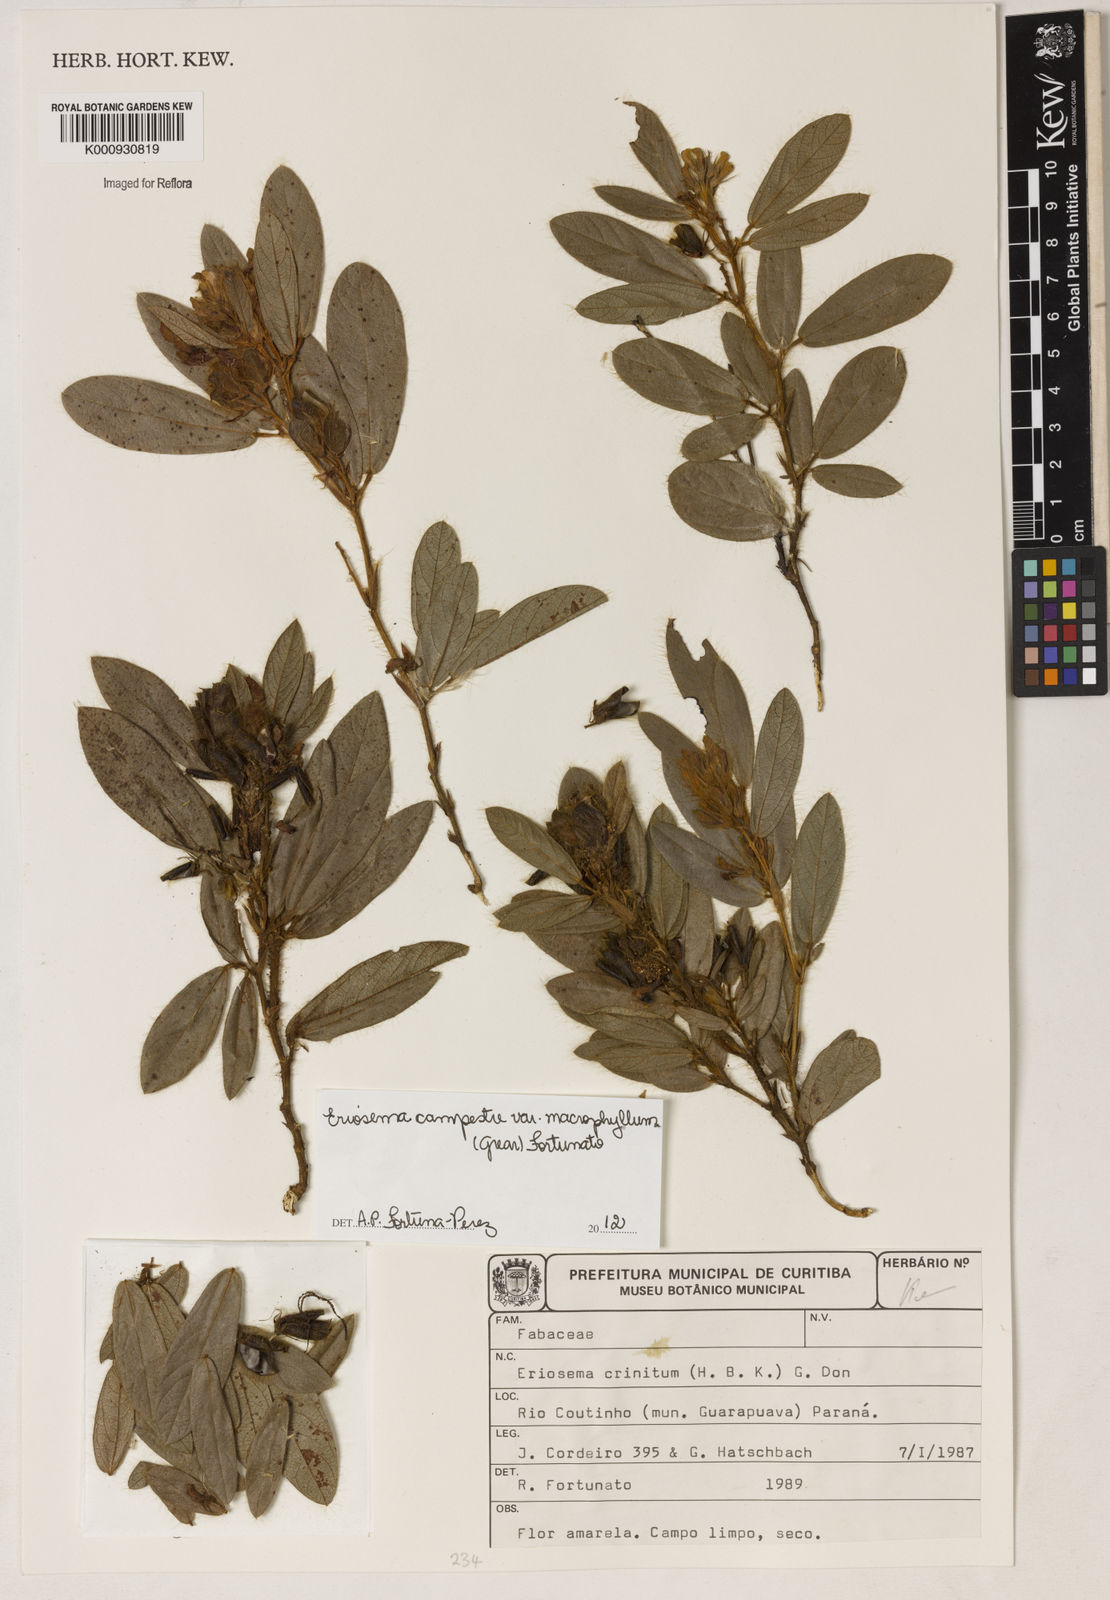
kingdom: Plantae
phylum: Tracheophyta
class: Magnoliopsida
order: Fabales
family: Fabaceae
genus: Eriosema
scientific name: Eriosema campestre
